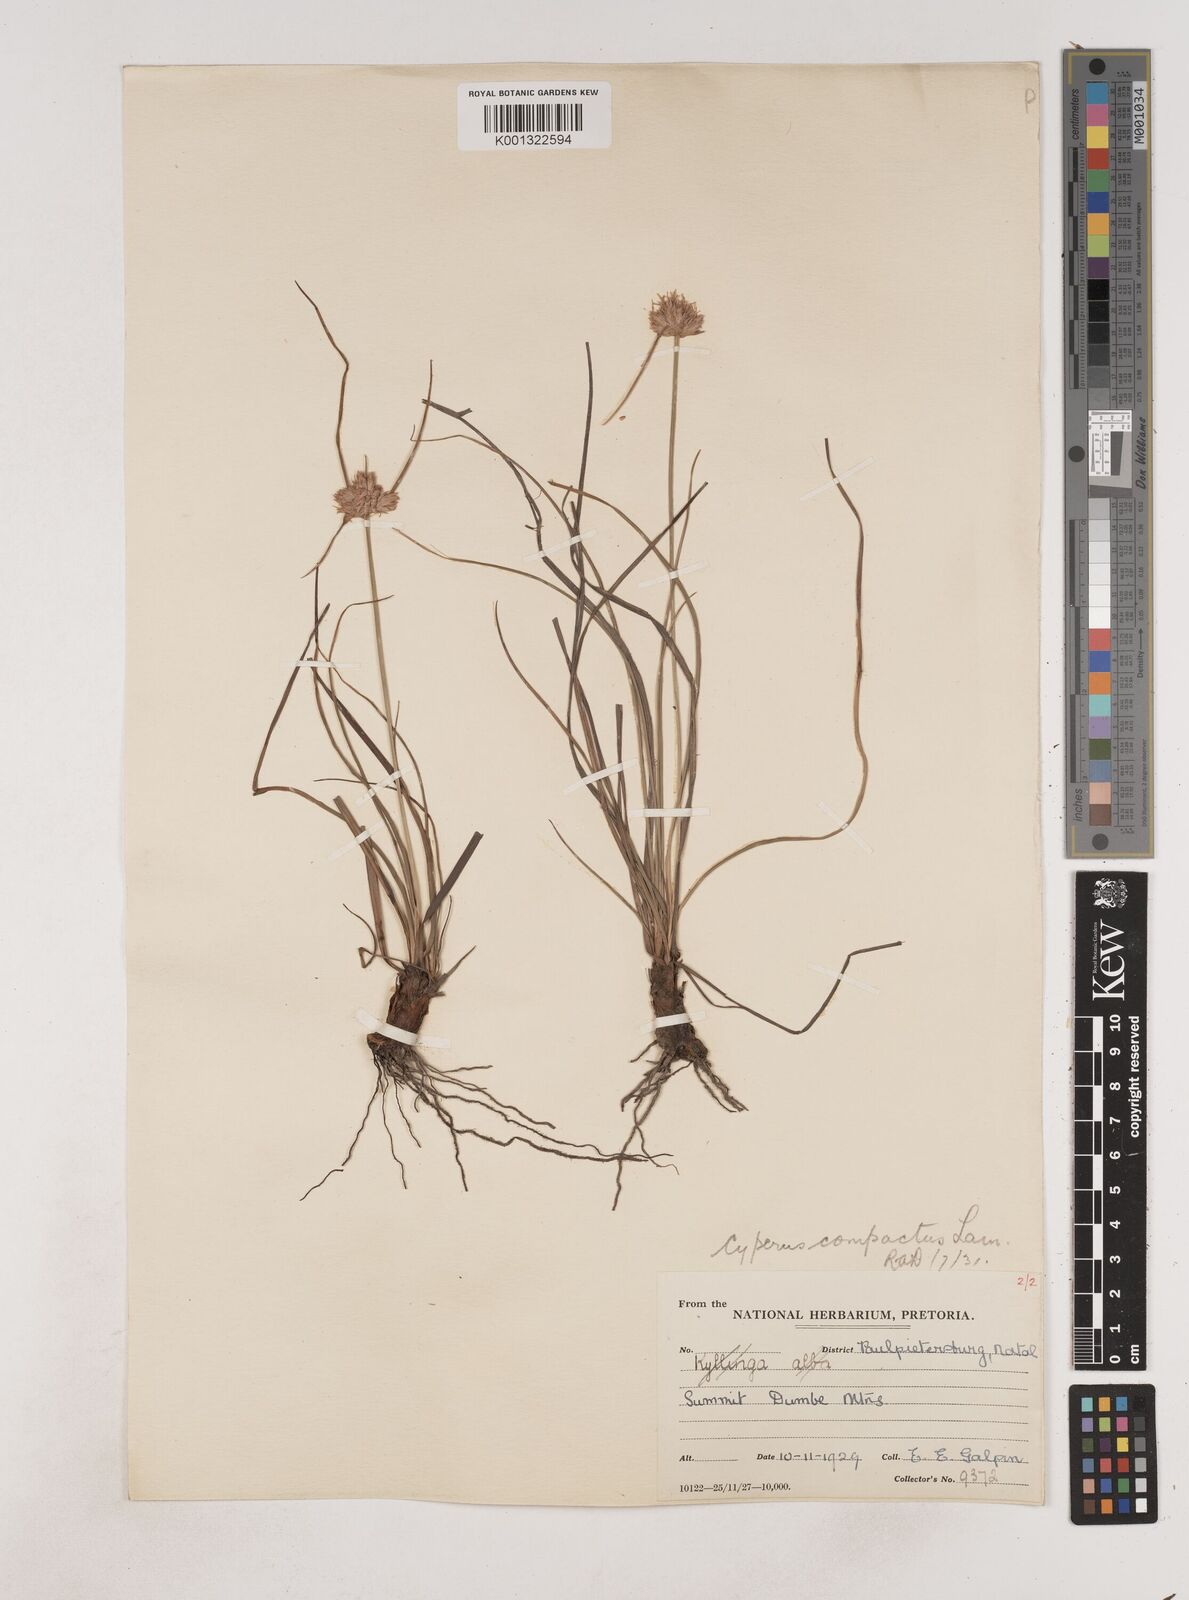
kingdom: Plantae
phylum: Tracheophyta
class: Liliopsida
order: Poales
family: Cyperaceae
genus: Cyperus
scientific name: Cyperus niveus
